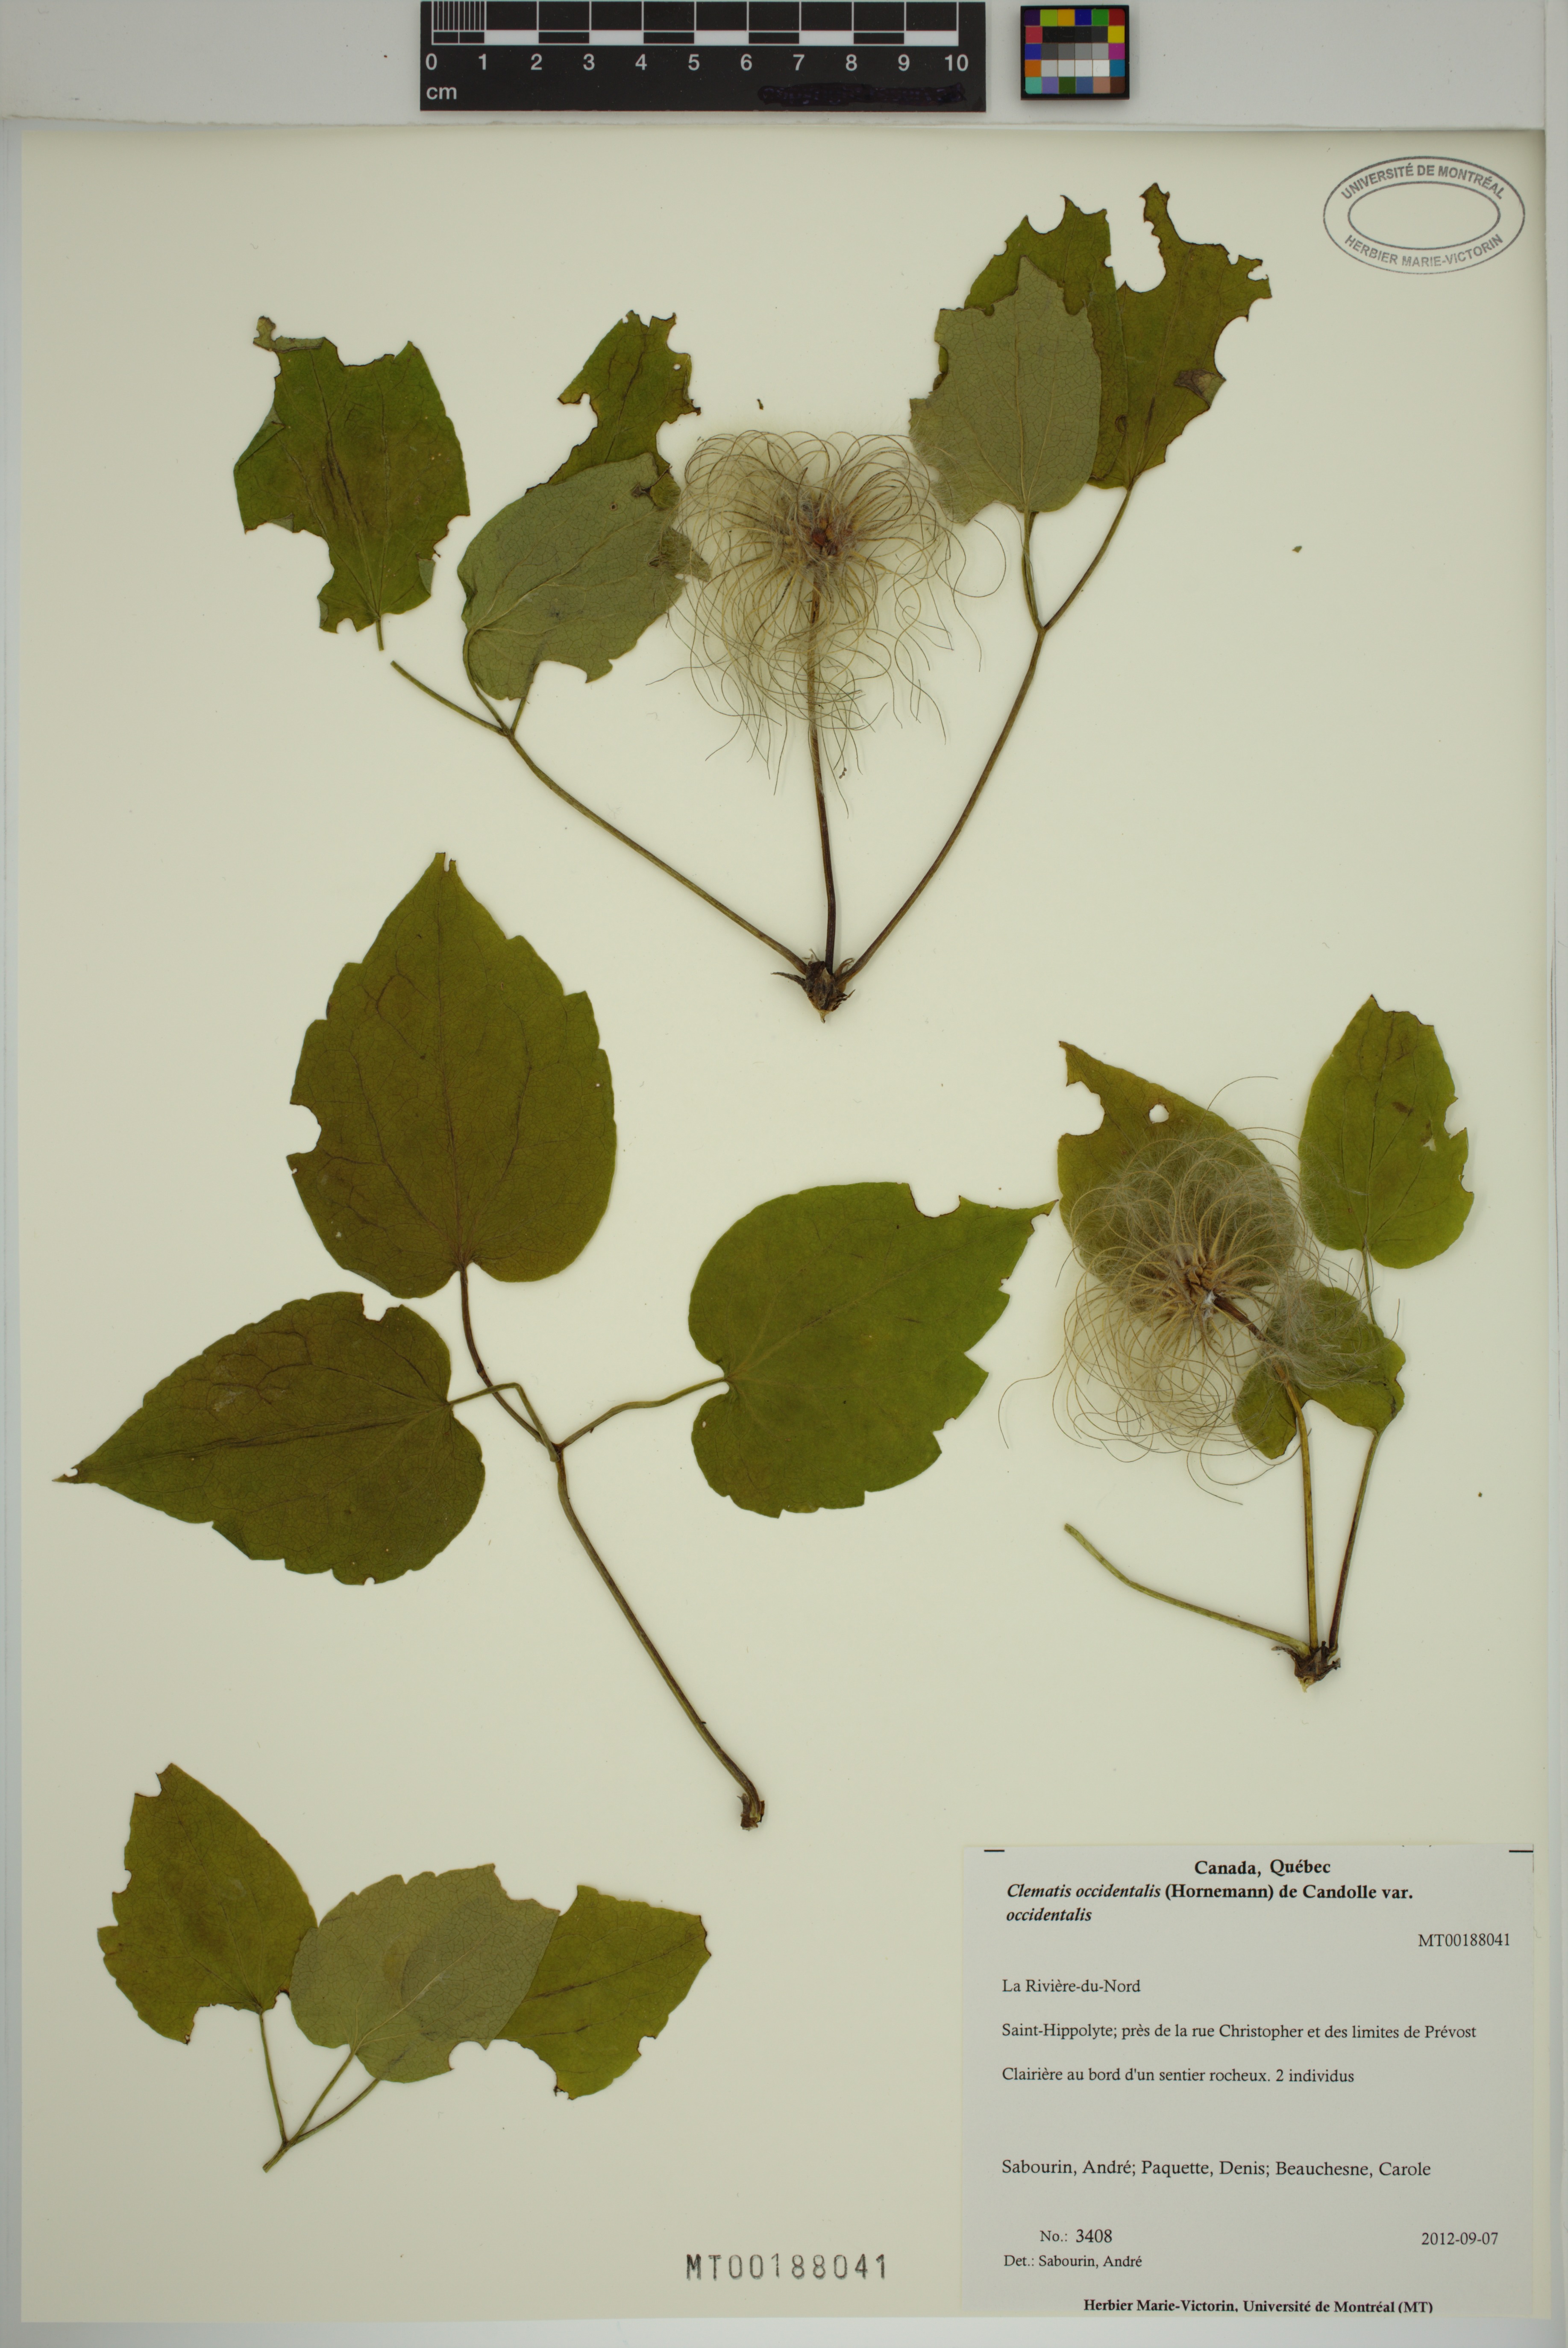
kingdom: Plantae
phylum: Tracheophyta
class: Magnoliopsida
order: Ranunculales
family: Ranunculaceae
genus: Clematis
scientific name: Clematis occidentalis
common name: Purple clematis
